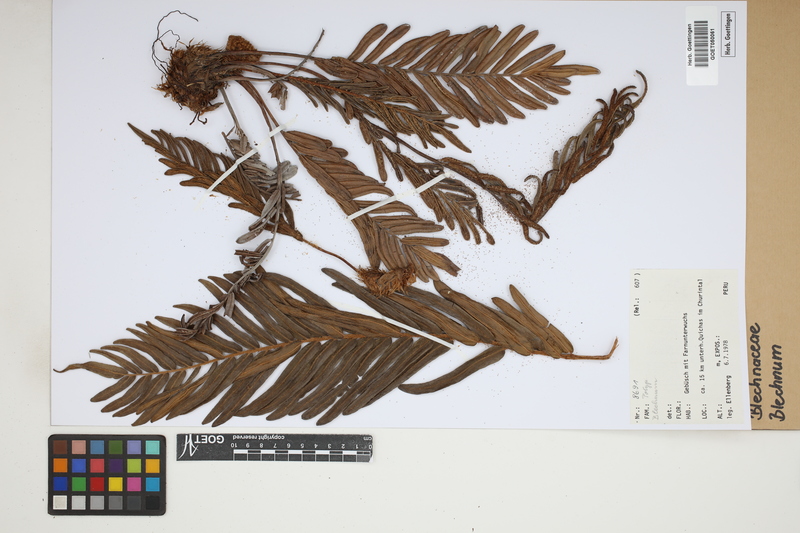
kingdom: Plantae
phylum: Tracheophyta
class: Polypodiopsida
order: Polypodiales
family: Blechnaceae
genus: Blechnum
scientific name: Blechnum
